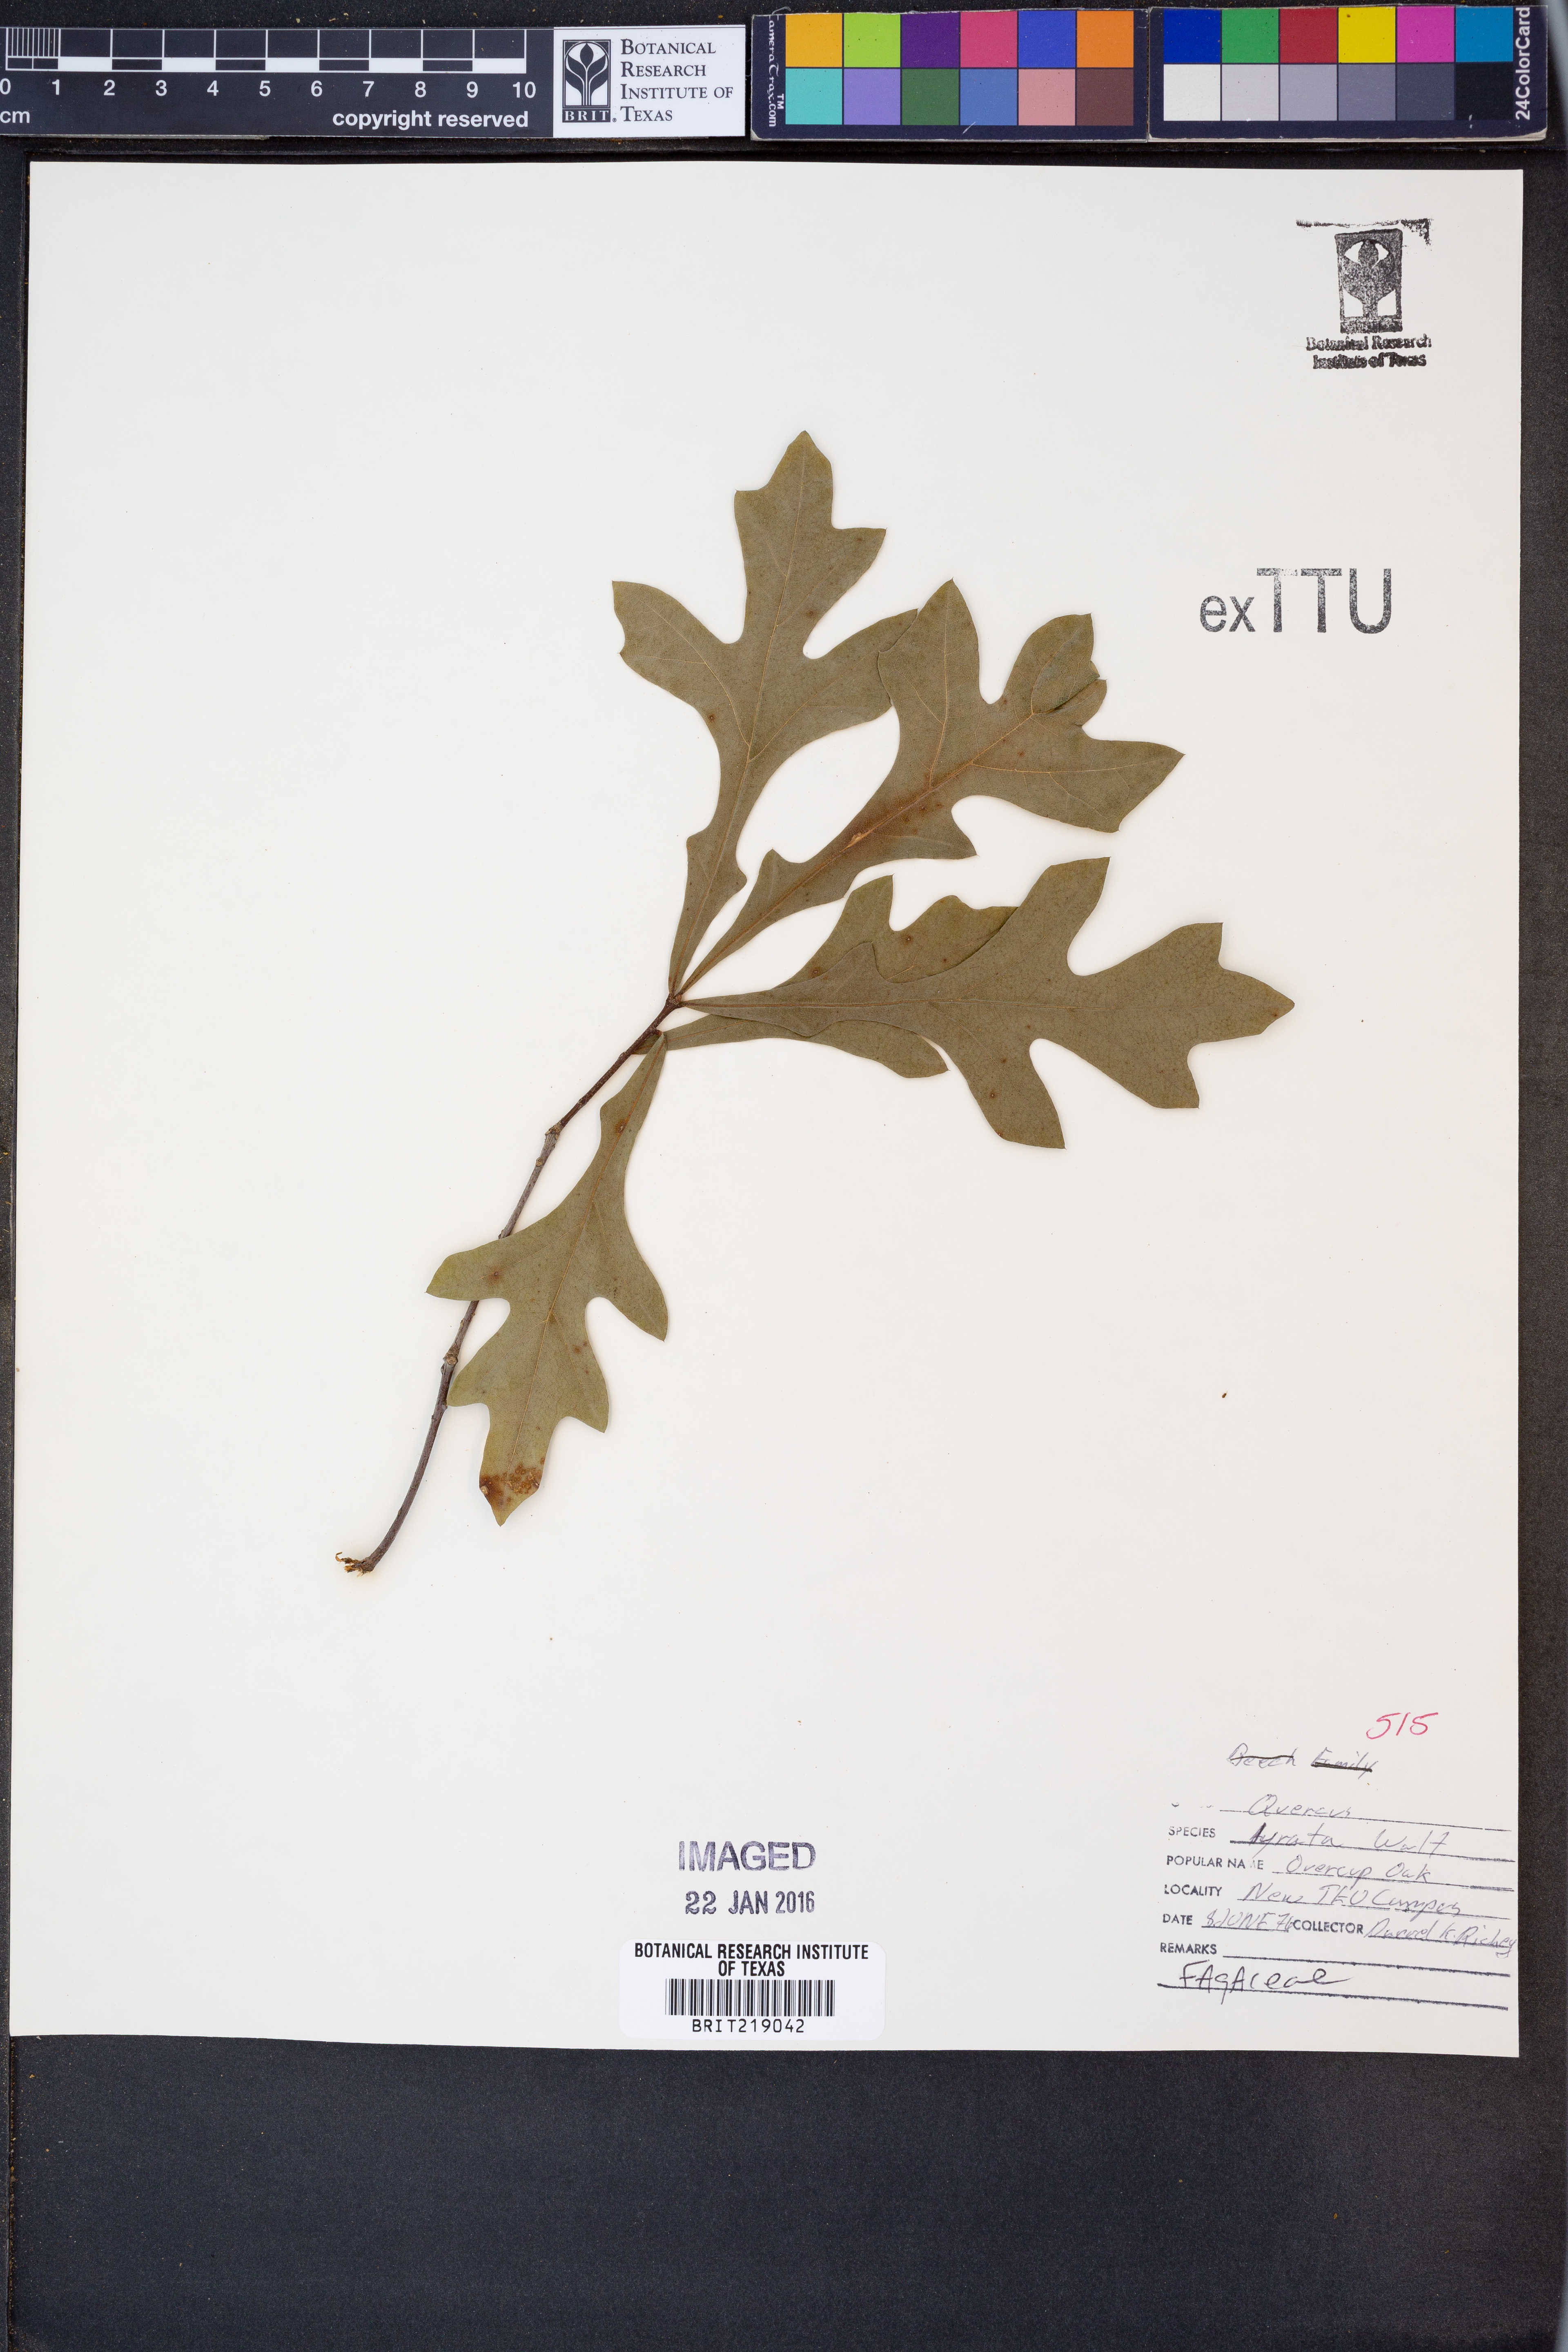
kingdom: Plantae
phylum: Tracheophyta
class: Magnoliopsida
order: Fagales
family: Fagaceae
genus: Quercus
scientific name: Quercus lyrata
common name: Overcup oak
